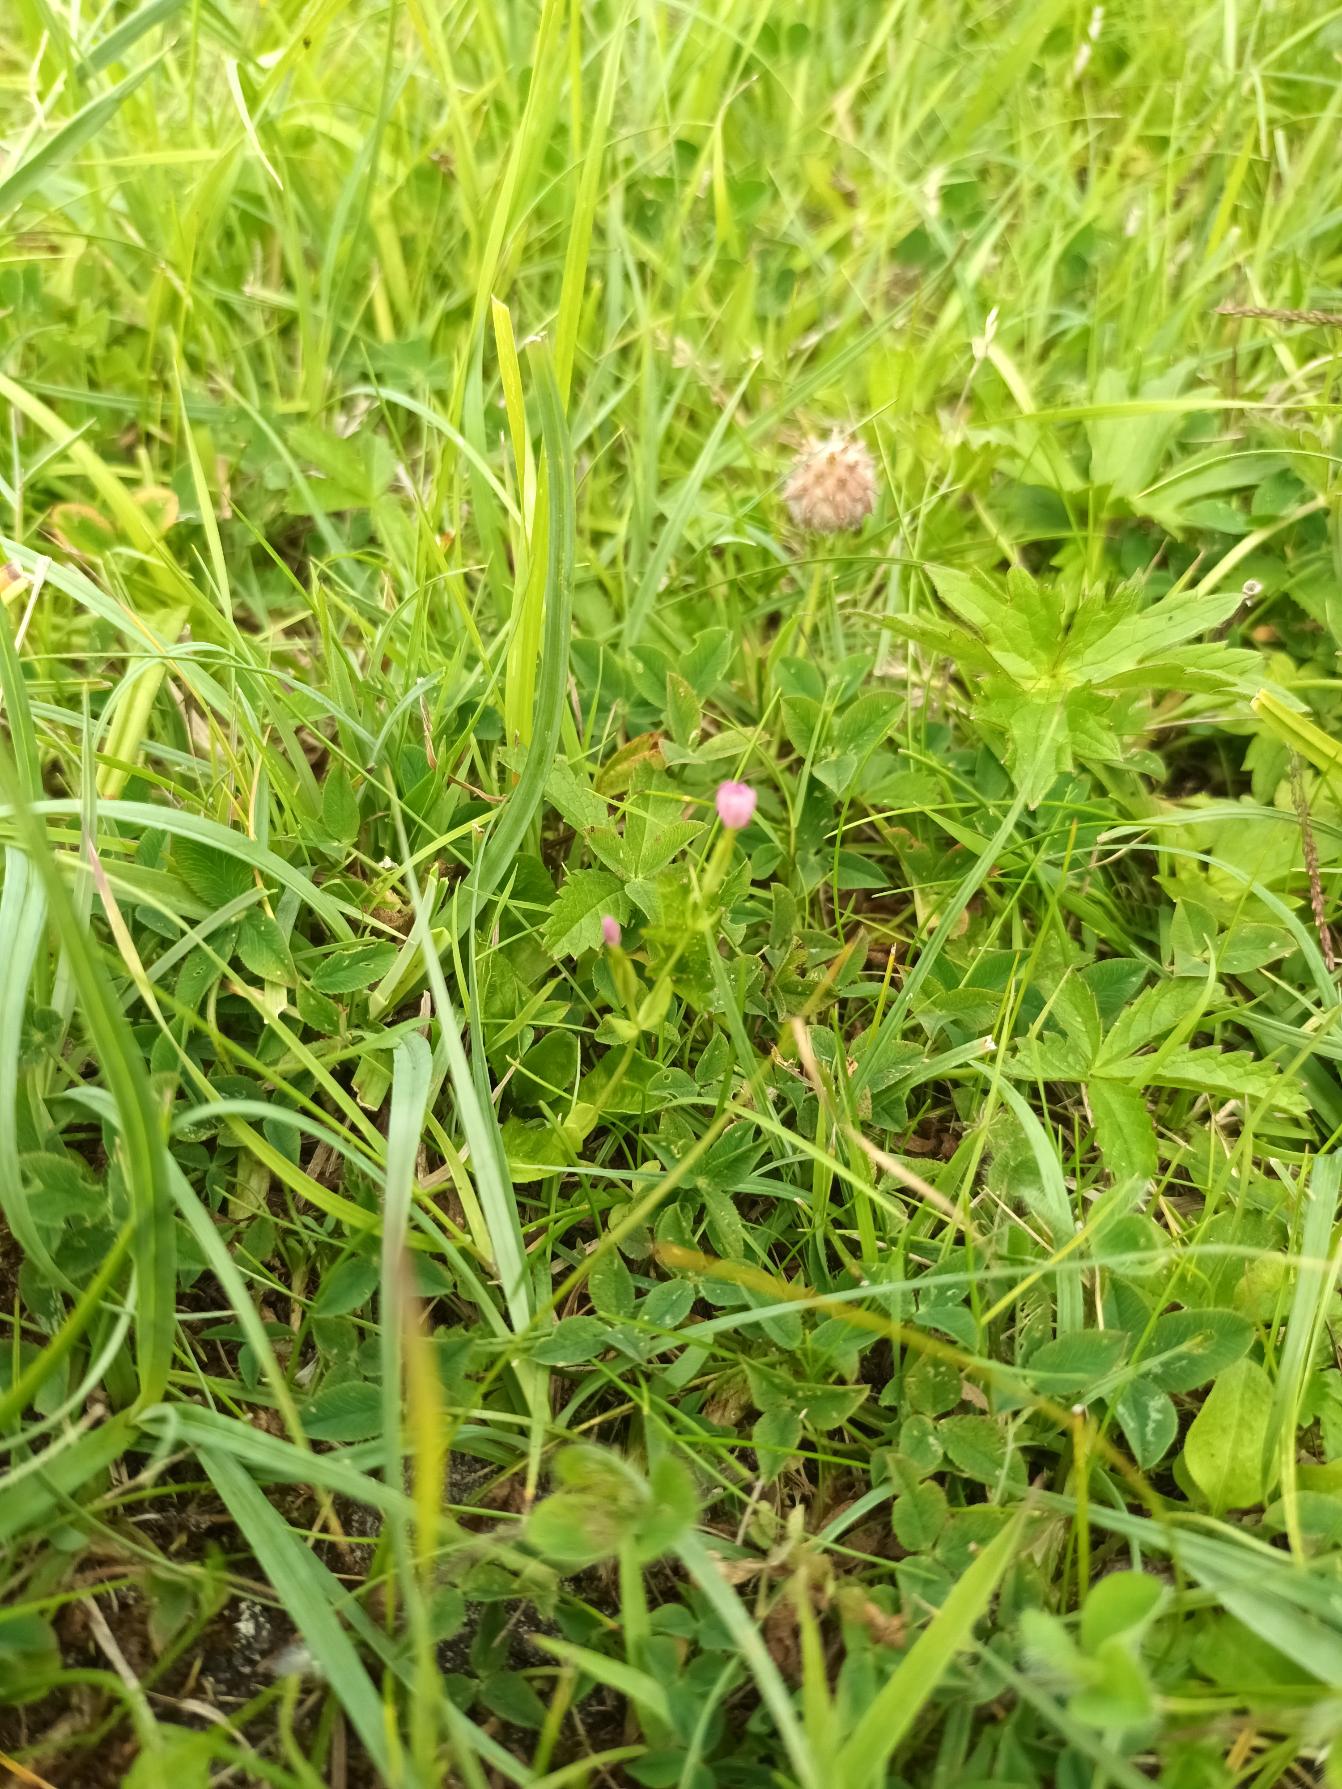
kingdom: Plantae
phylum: Tracheophyta
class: Magnoliopsida
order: Gentianales
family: Gentianaceae
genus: Centaurium
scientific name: Centaurium pulchellum
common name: Liden tusindgylden
